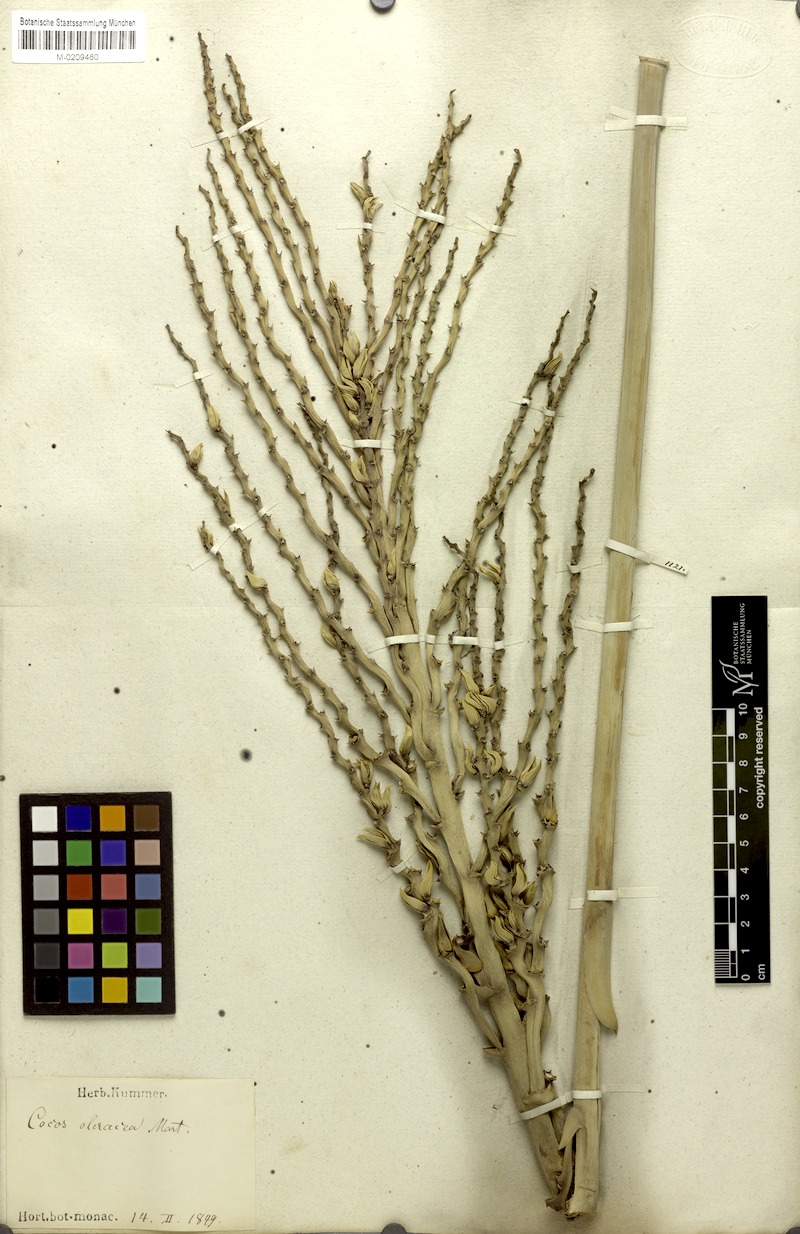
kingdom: Plantae
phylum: Tracheophyta
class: Liliopsida
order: Arecales
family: Arecaceae
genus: Syagrus
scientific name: Syagrus oleracea
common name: Catole palm
